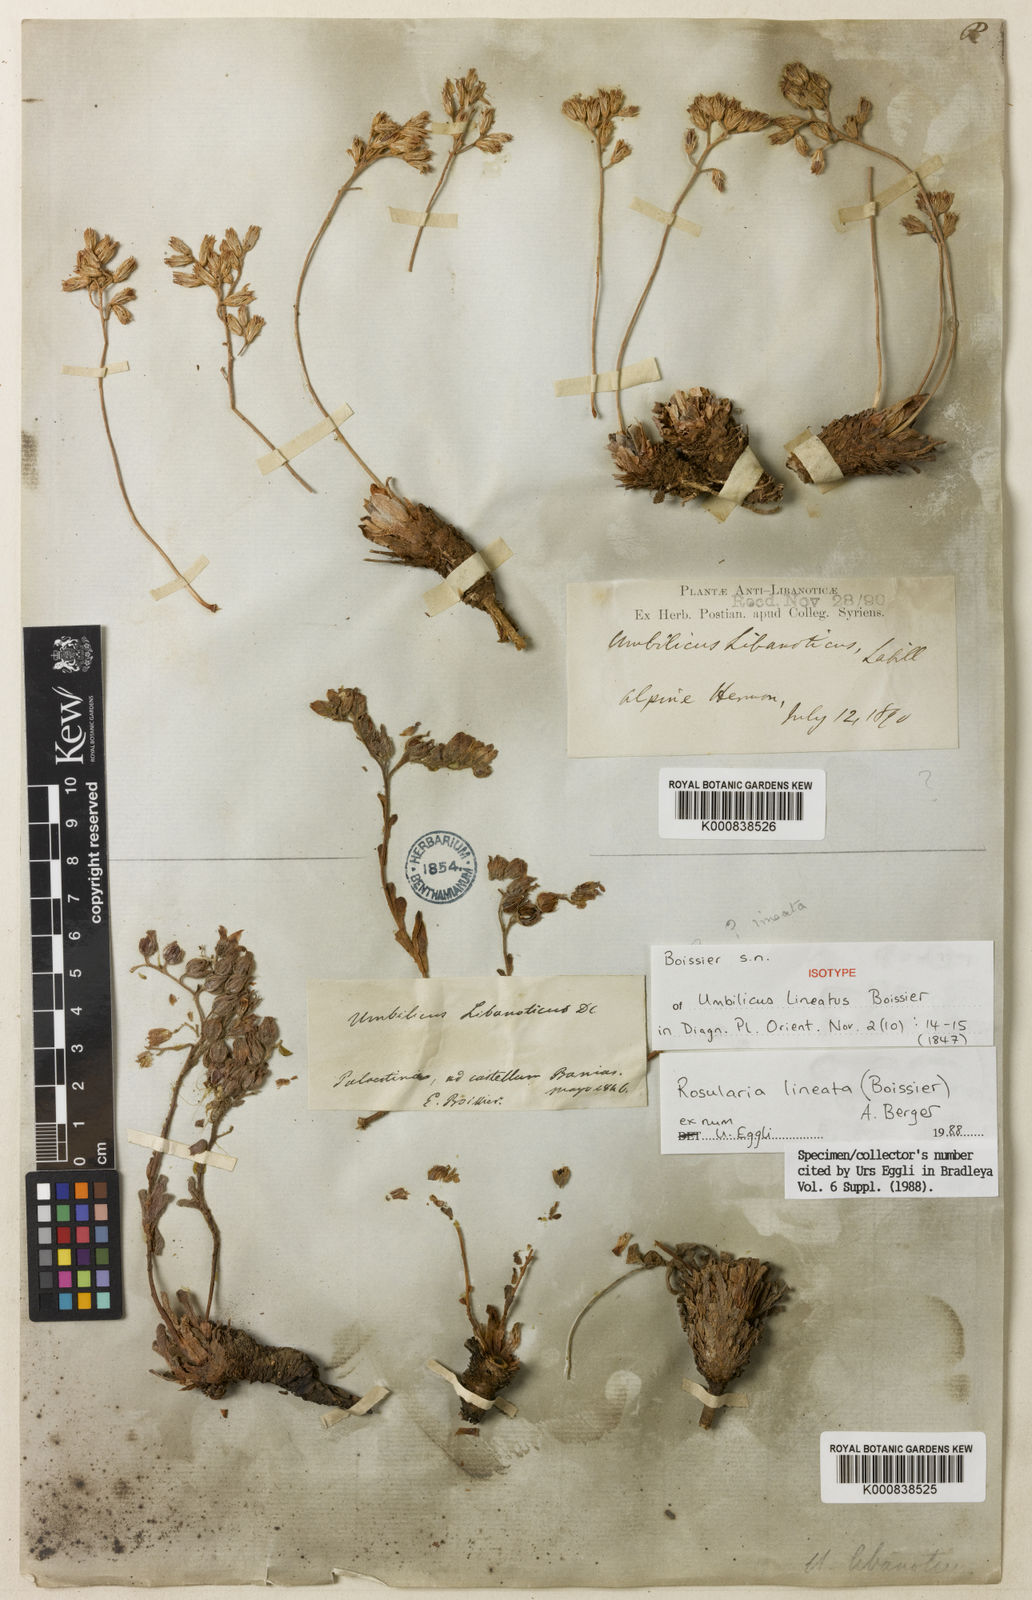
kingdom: Plantae
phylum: Tracheophyta
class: Magnoliopsida
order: Saxifragales
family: Crassulaceae
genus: Rosularia
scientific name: Rosularia lineata
